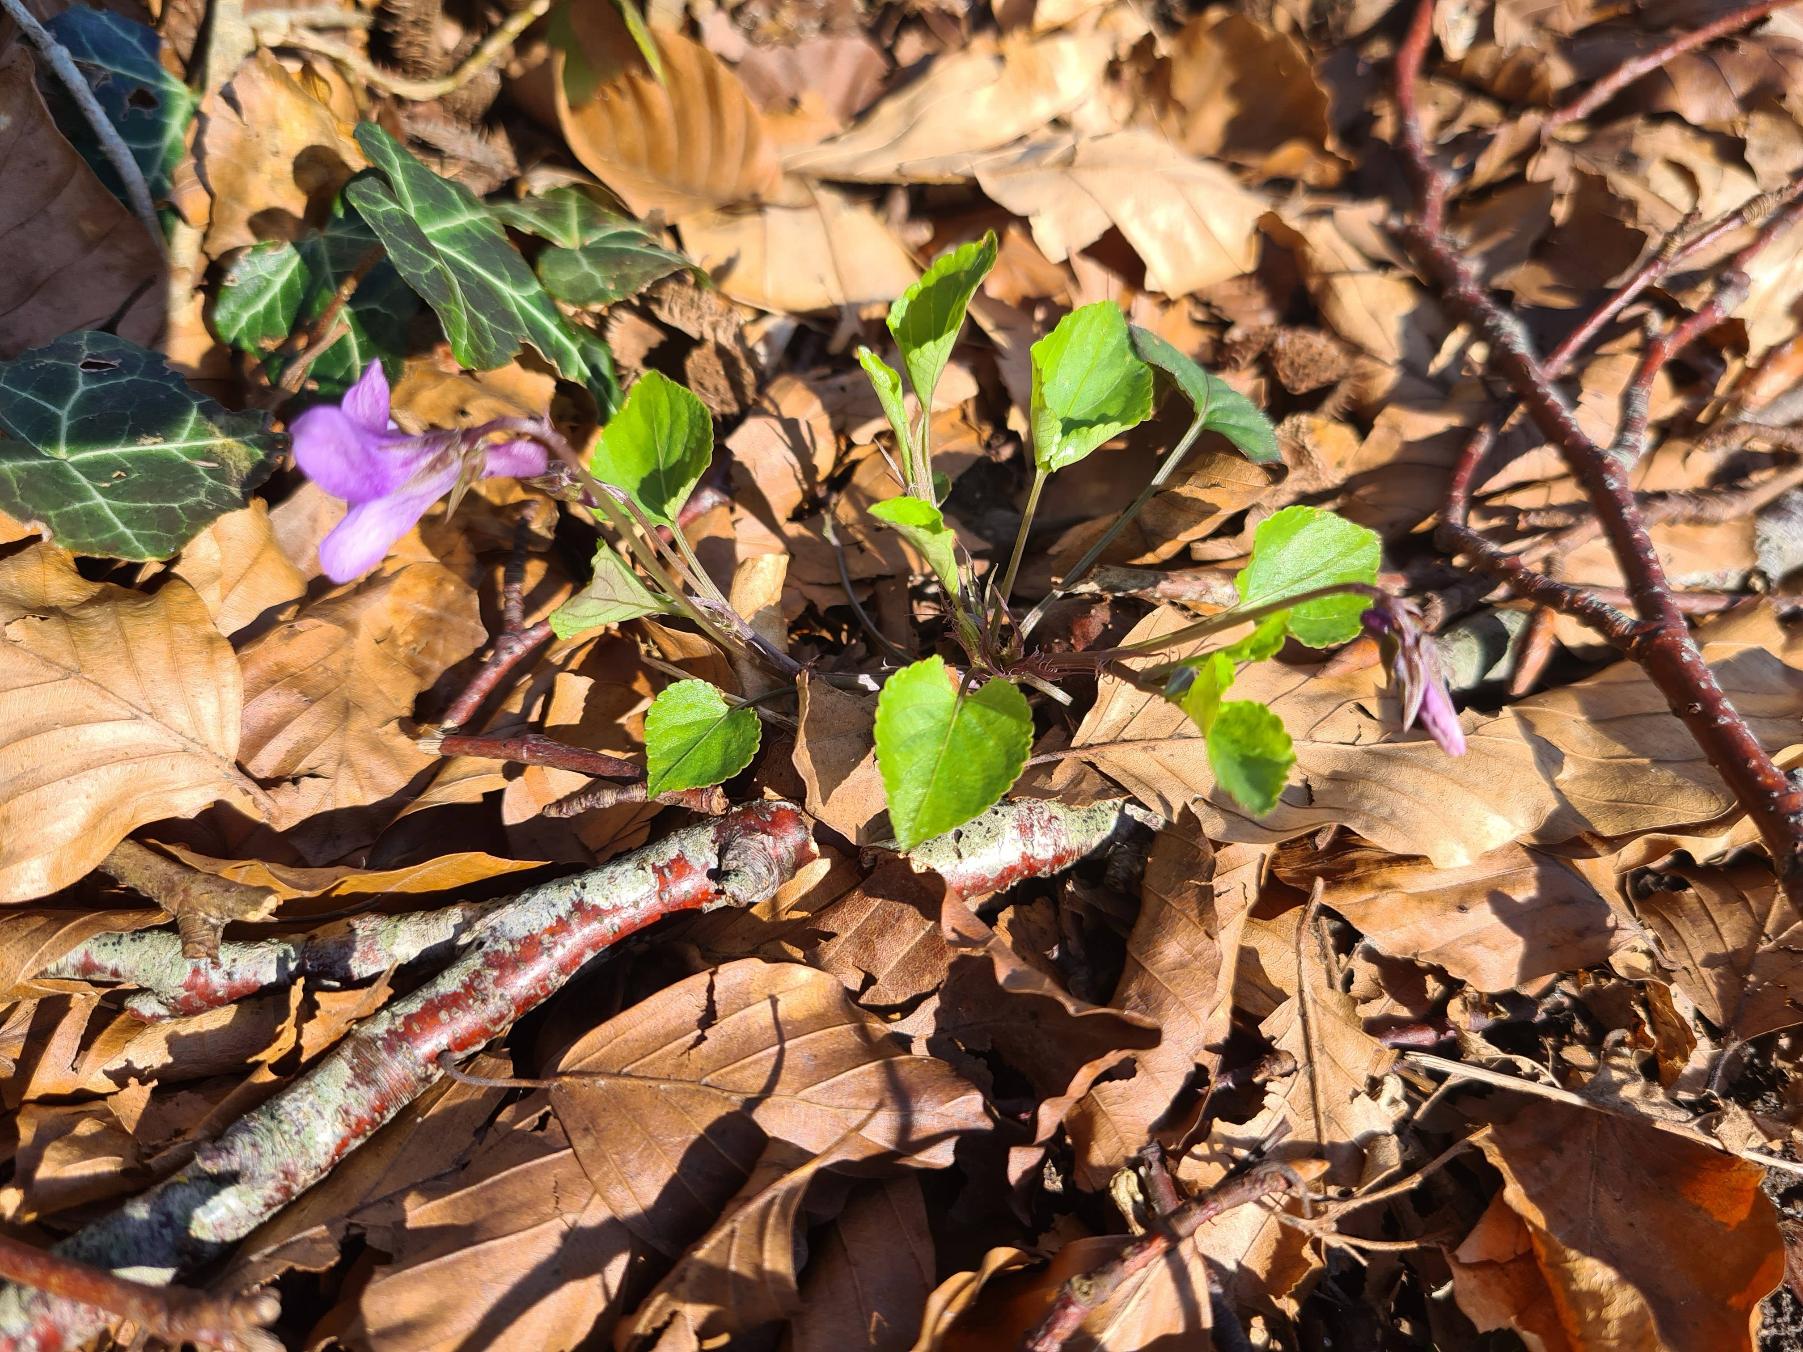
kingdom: Plantae
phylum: Tracheophyta
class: Magnoliopsida
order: Malpighiales
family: Violaceae
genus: Viola
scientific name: Viola reichenbachiana
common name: Skov-viol
